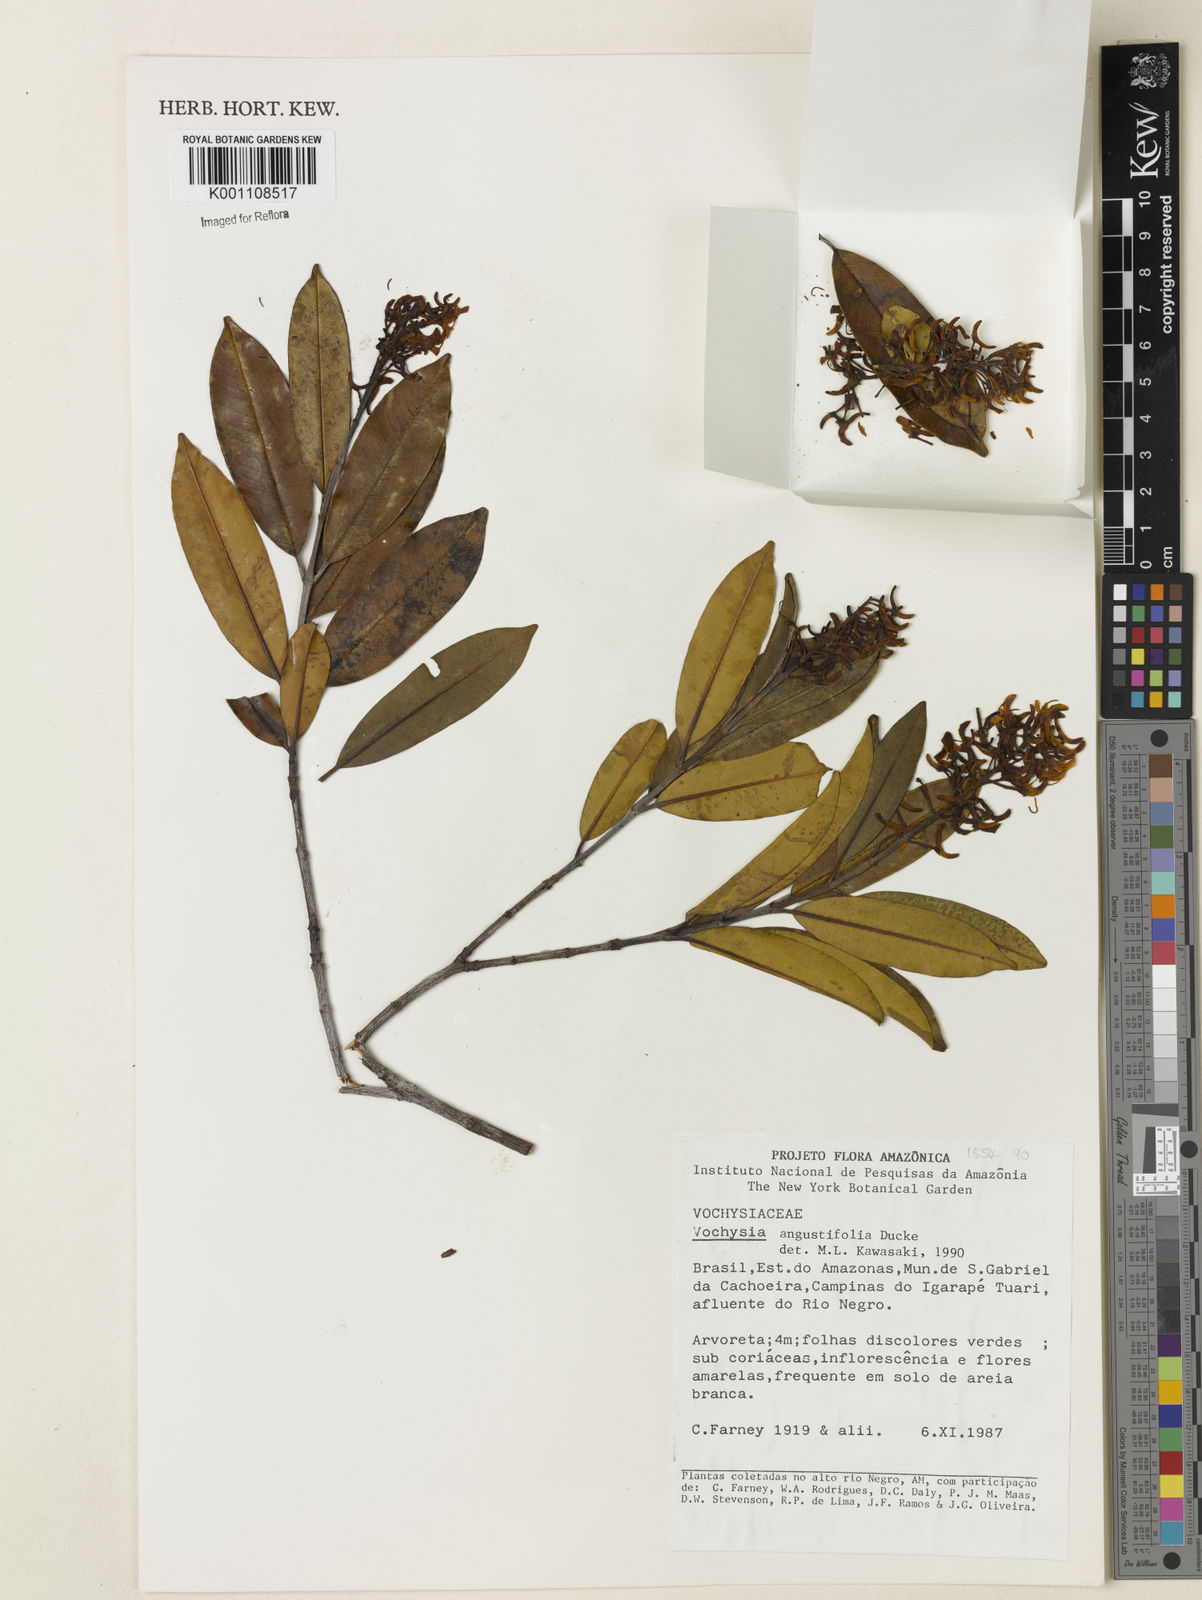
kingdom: Plantae
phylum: Tracheophyta
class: Magnoliopsida
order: Myrtales
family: Vochysiaceae
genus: Vochysia
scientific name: Vochysia assua
